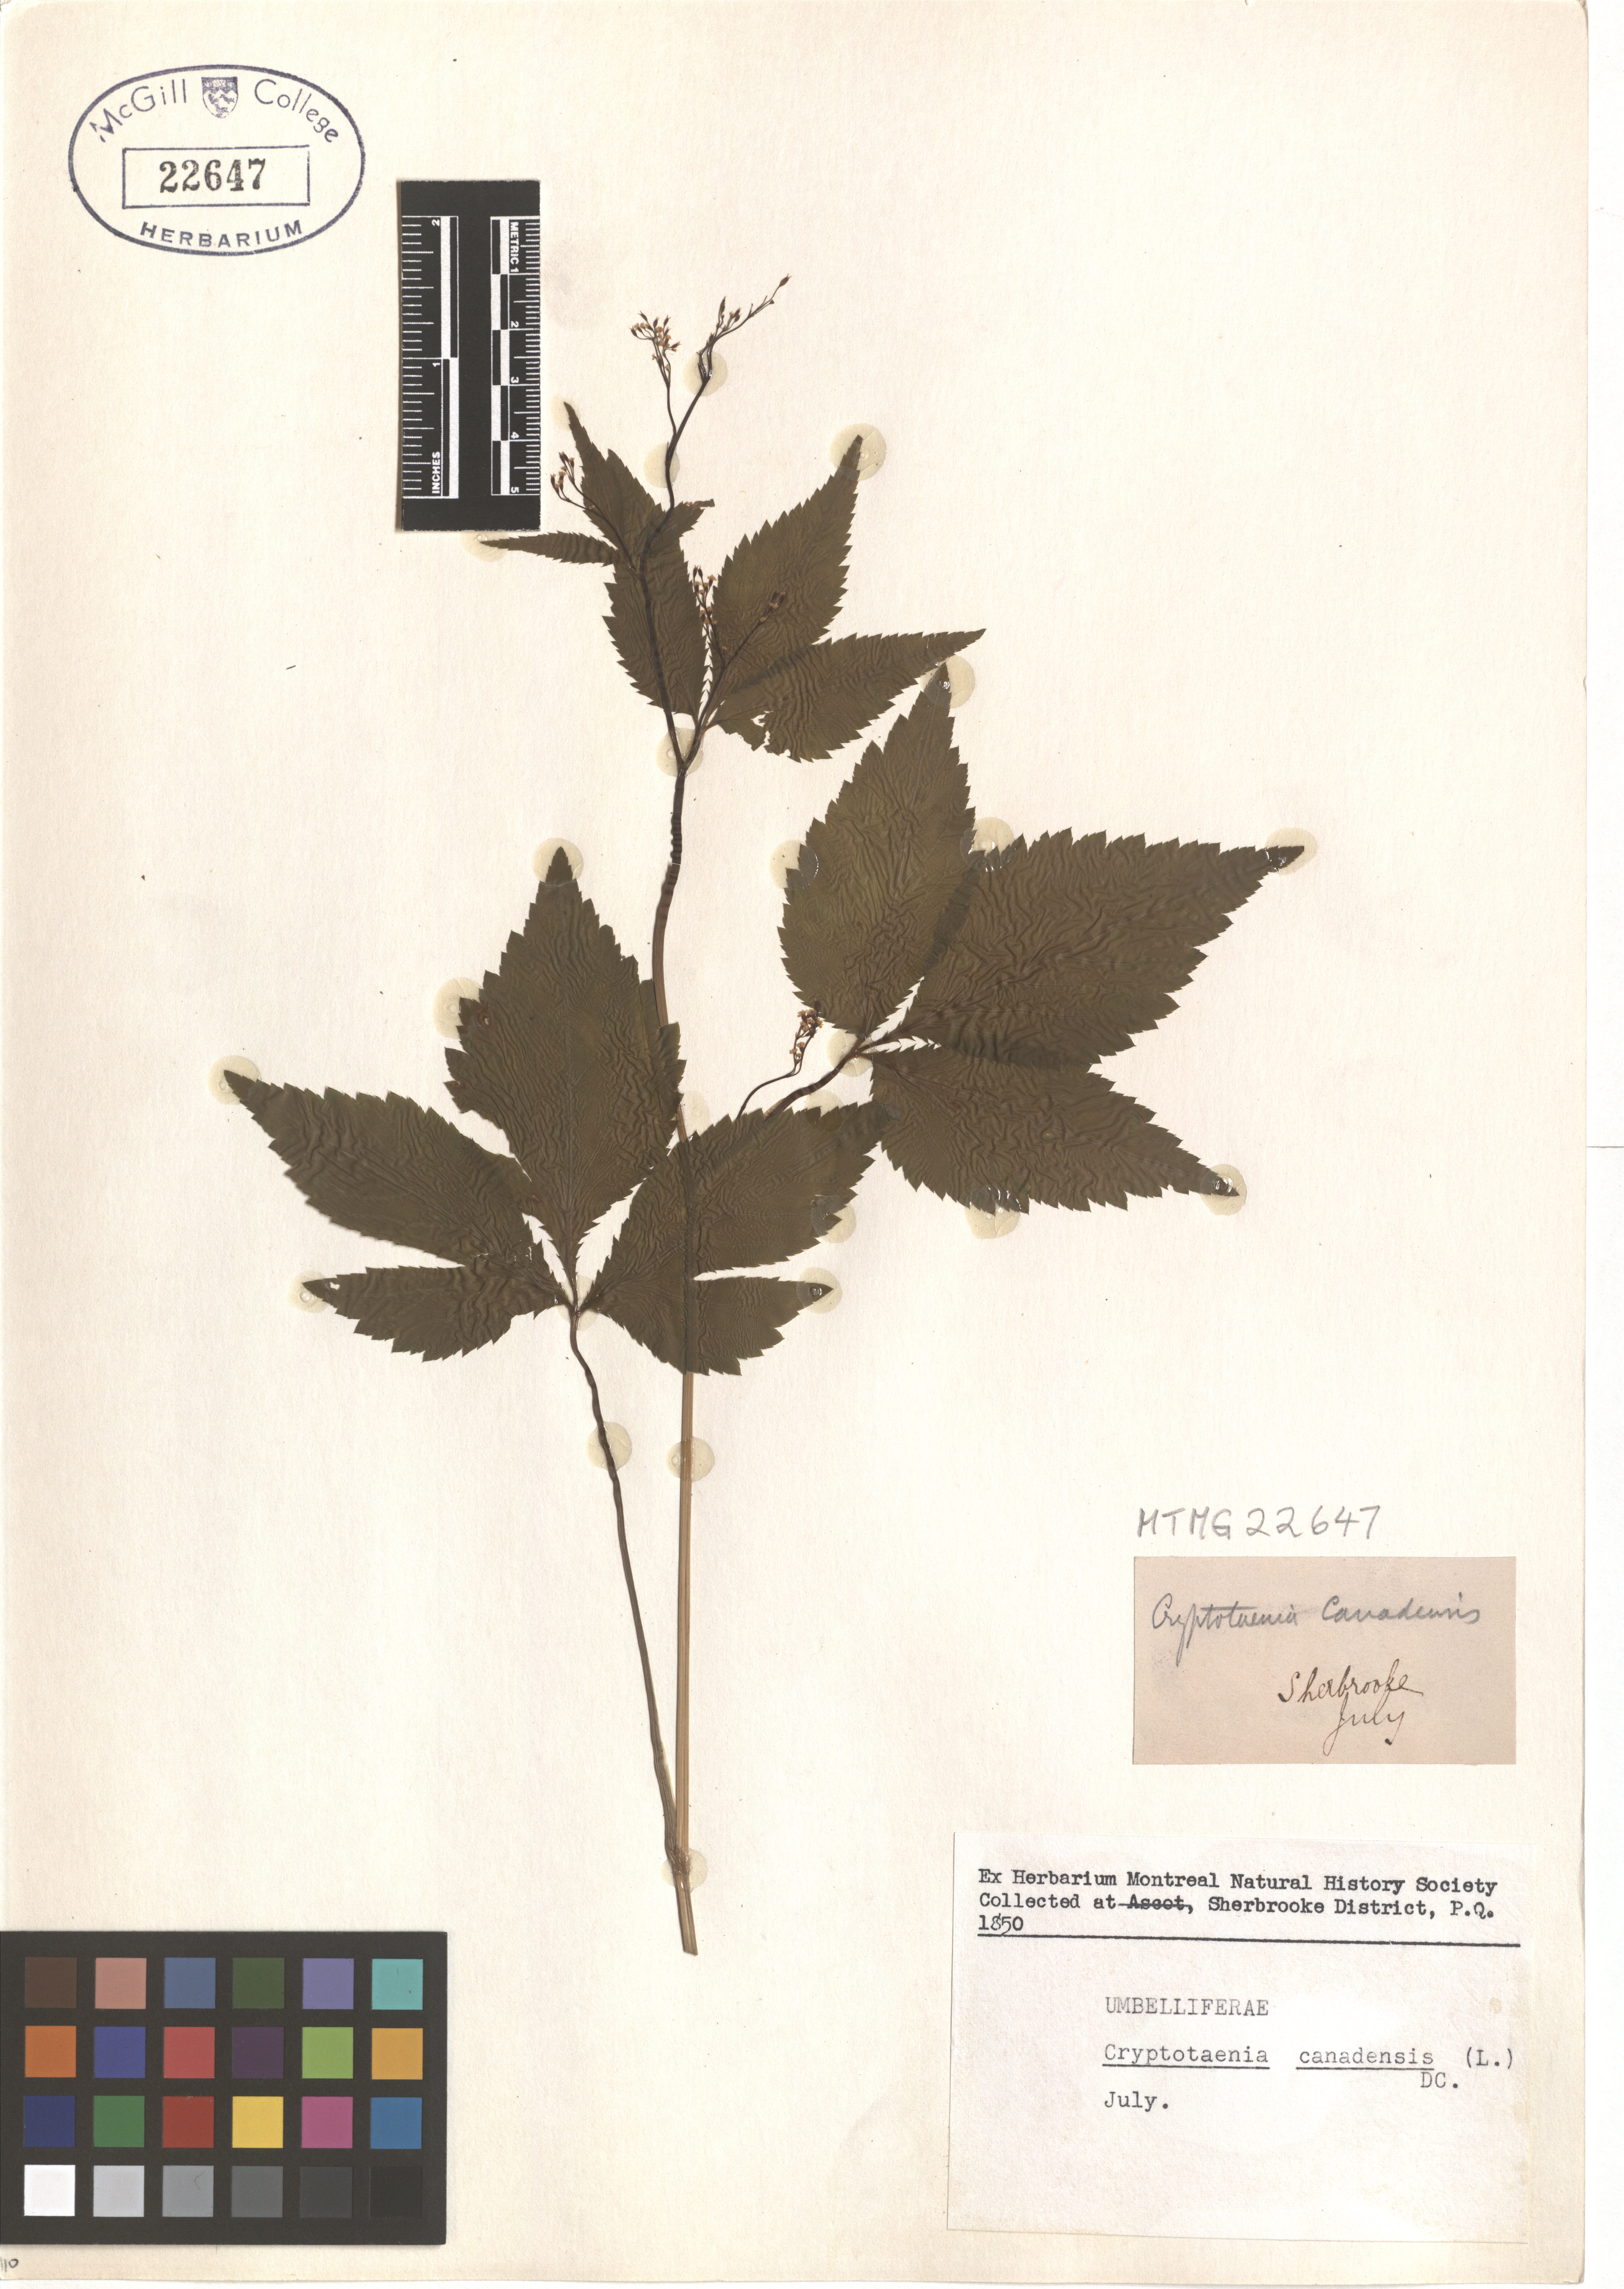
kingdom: Plantae
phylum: Tracheophyta
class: Magnoliopsida
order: Apiales
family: Apiaceae
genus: Cryptotaenia
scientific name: Cryptotaenia canadensis
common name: Honewort
